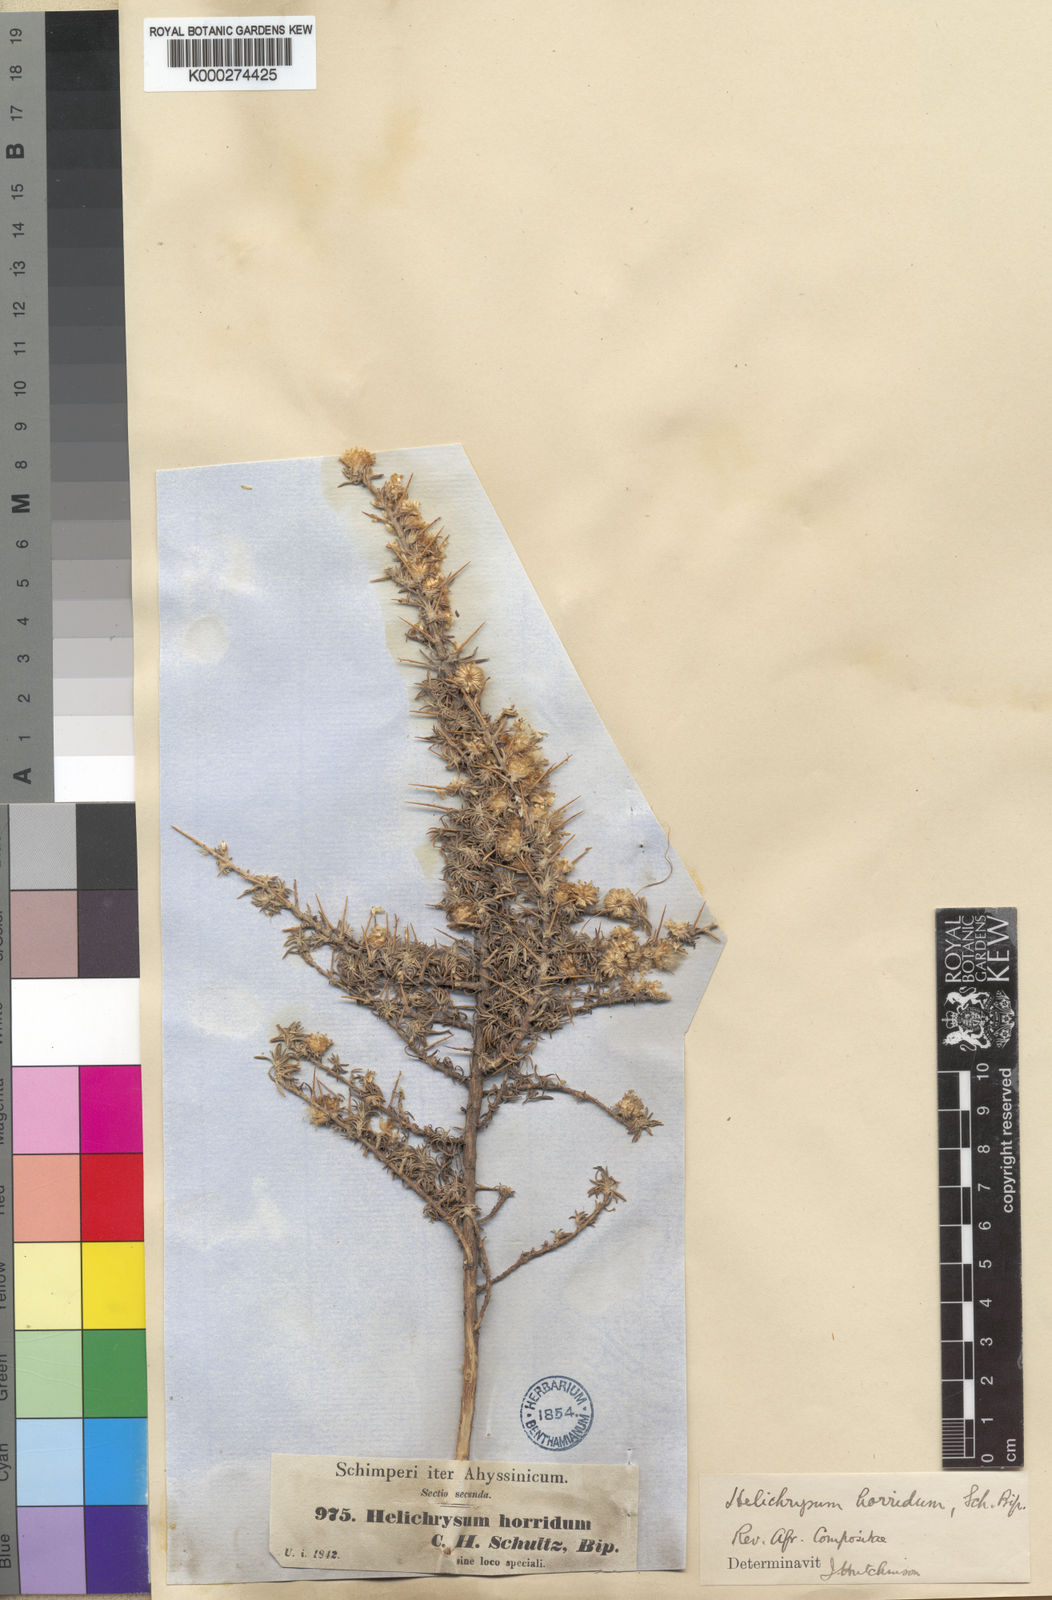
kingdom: Plantae
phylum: Tracheophyta
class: Magnoliopsida
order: Asterales
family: Asteraceae
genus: Helichrysum
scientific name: Helichrysum horridum
